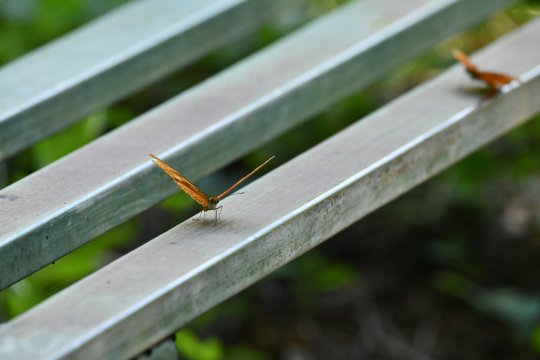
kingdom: Animalia
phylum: Arthropoda
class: Insecta
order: Lepidoptera
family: Nymphalidae
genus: Dryas
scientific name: Dryas iulia
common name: Julia
